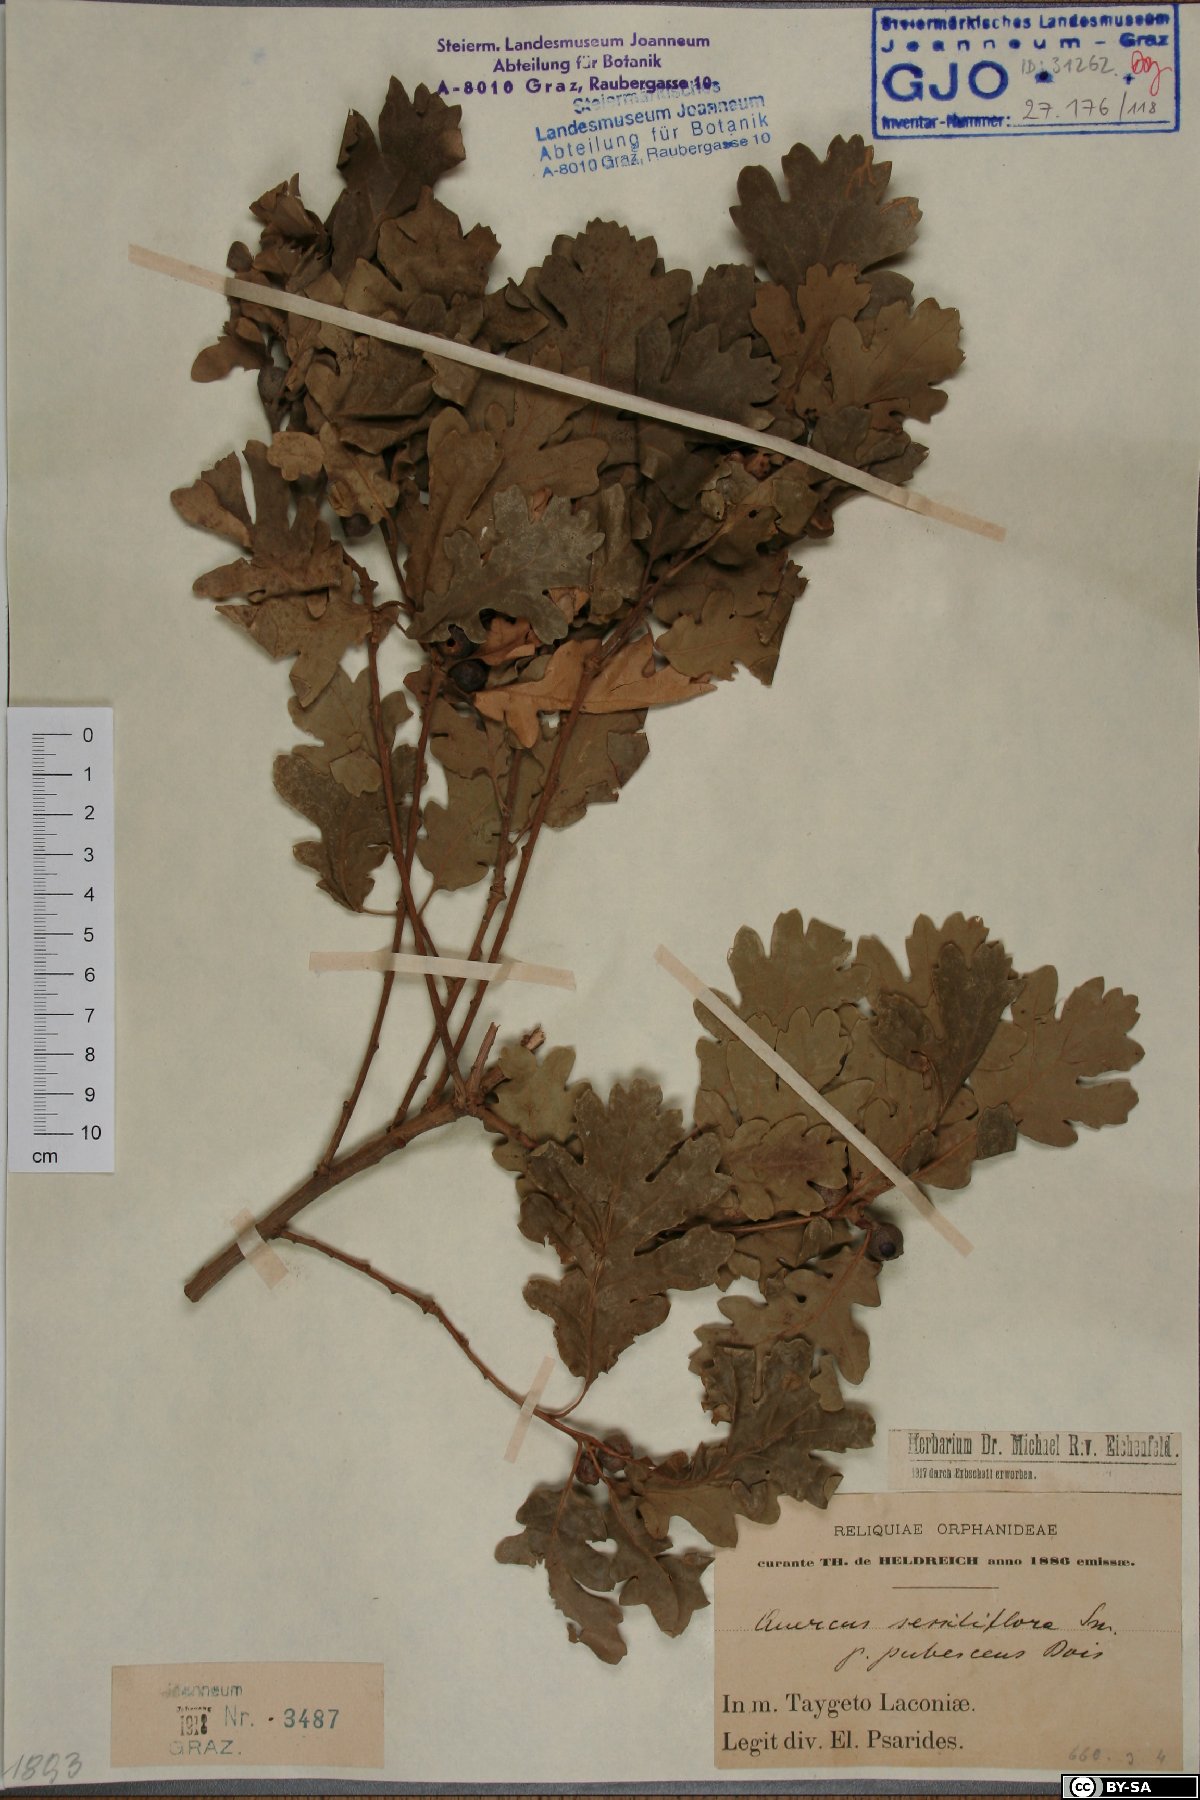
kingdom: Plantae
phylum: Tracheophyta
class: Magnoliopsida
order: Fagales
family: Fagaceae
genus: Quercus
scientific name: Quercus pubescens
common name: Downy oak
